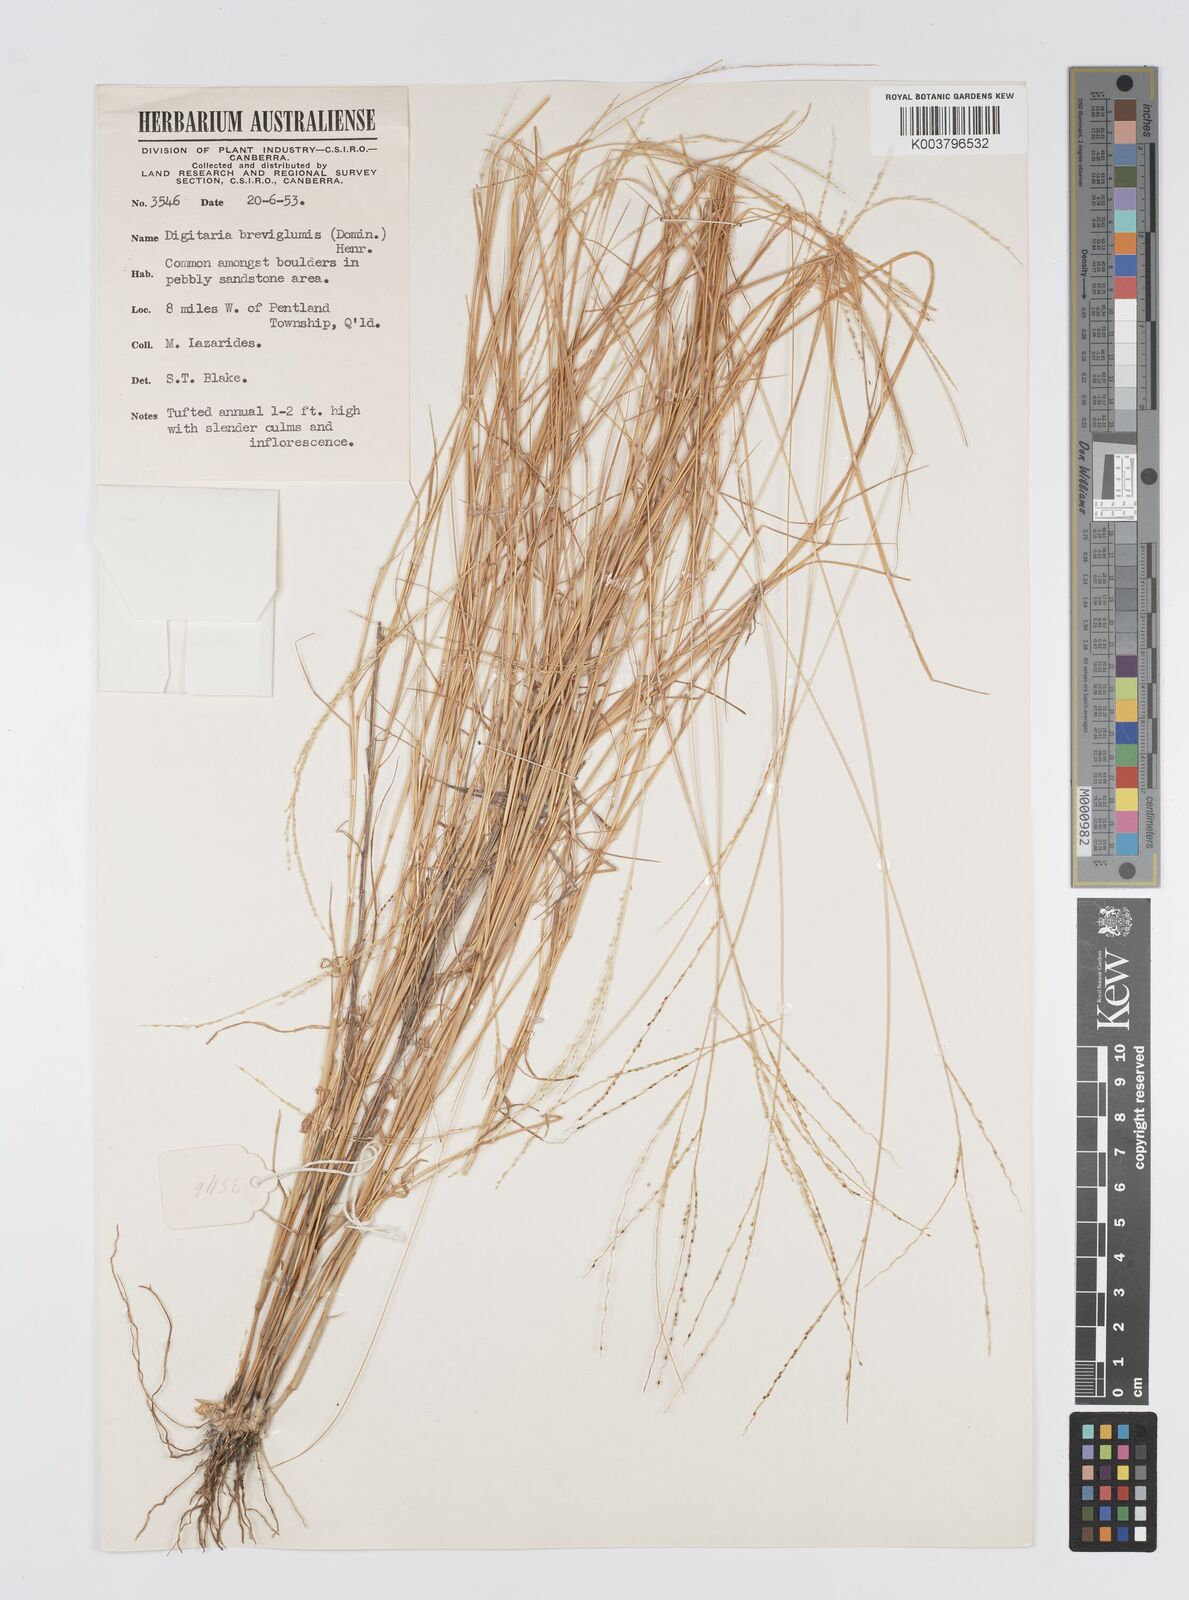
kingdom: Plantae
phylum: Tracheophyta
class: Liliopsida
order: Poales
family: Poaceae
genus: Digitaria
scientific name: Digitaria breviglumis
